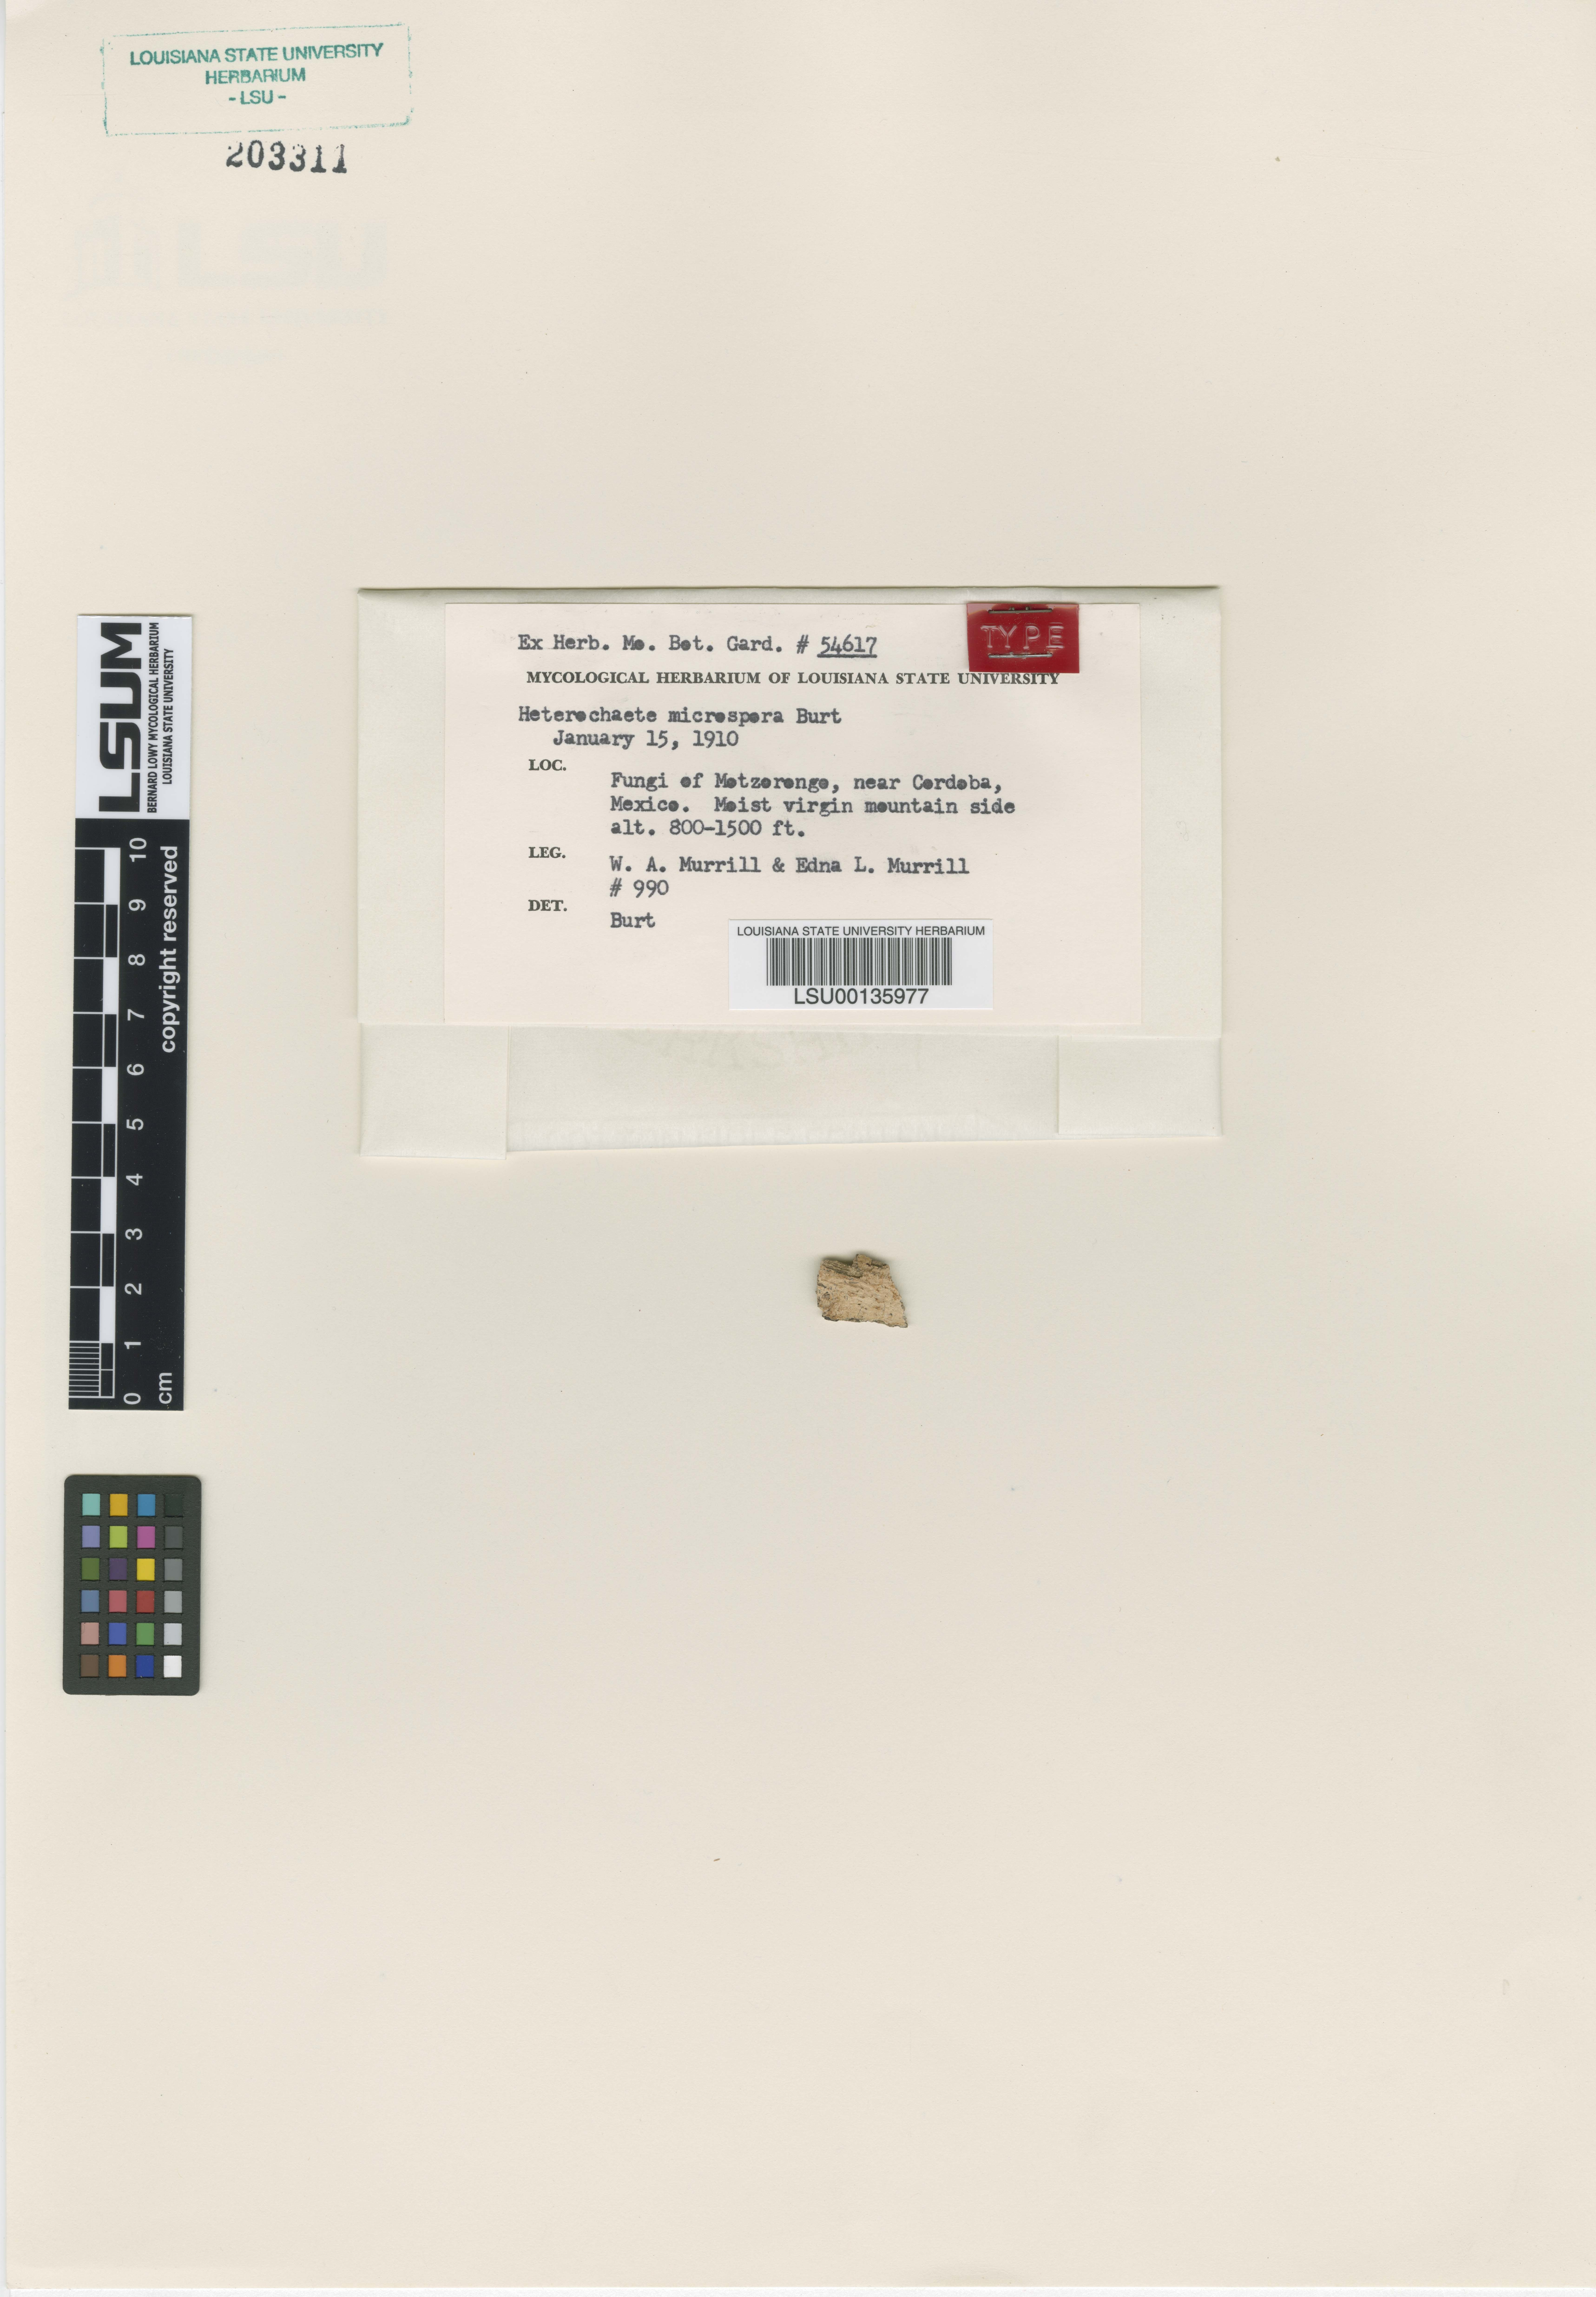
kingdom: Fungi
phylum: Basidiomycota
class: Agaricomycetes
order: Auriculariales
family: Hyaloriaceae
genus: Protomerulius
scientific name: Protomerulius microsporus
